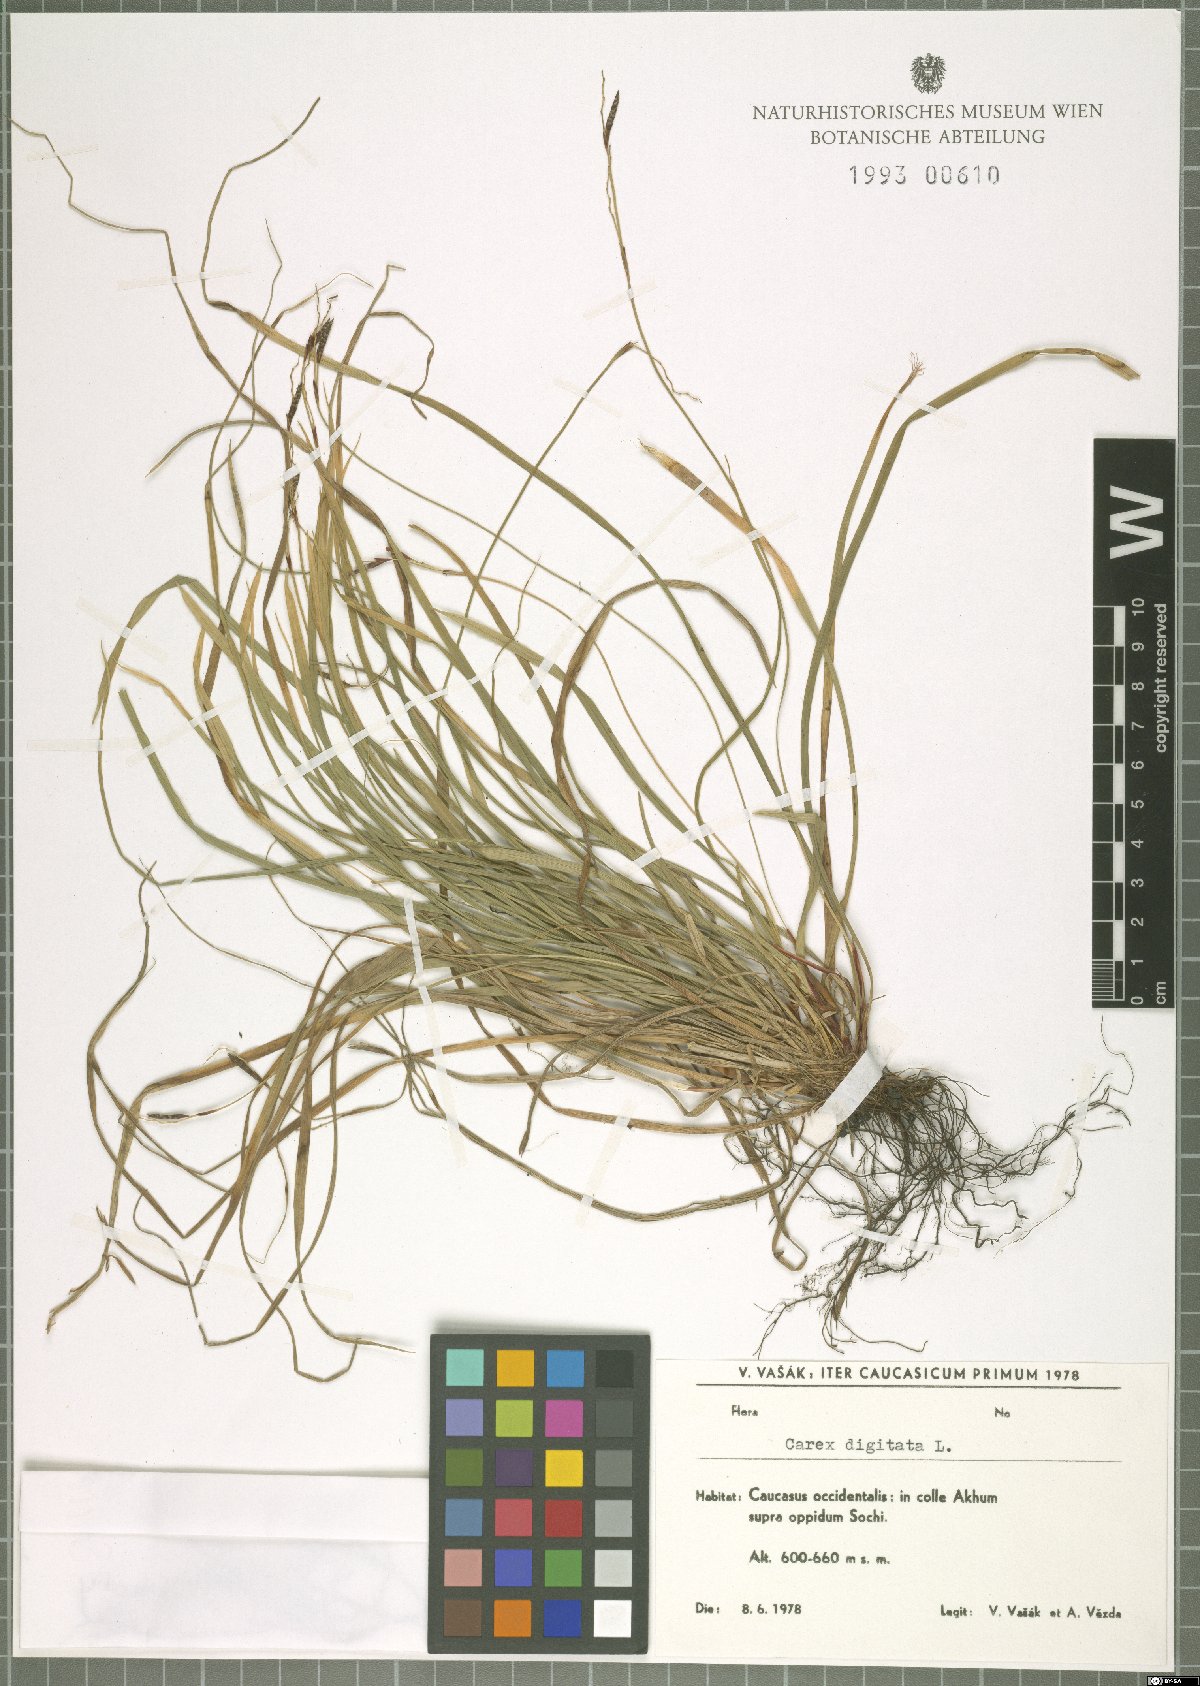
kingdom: Plantae
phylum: Tracheophyta
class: Liliopsida
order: Poales
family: Cyperaceae
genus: Carex
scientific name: Carex digitata
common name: Fingered sedge
